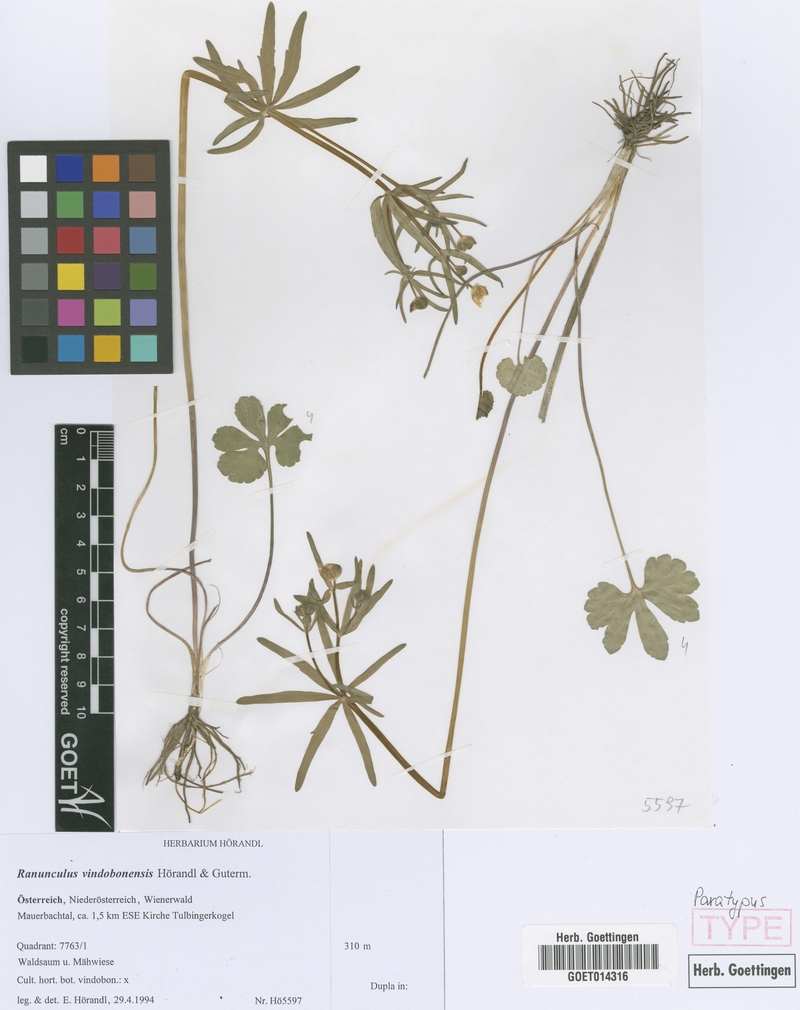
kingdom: Plantae
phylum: Tracheophyta
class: Magnoliopsida
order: Ranunculales
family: Ranunculaceae
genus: Ranunculus
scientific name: Ranunculus vindobonensis
